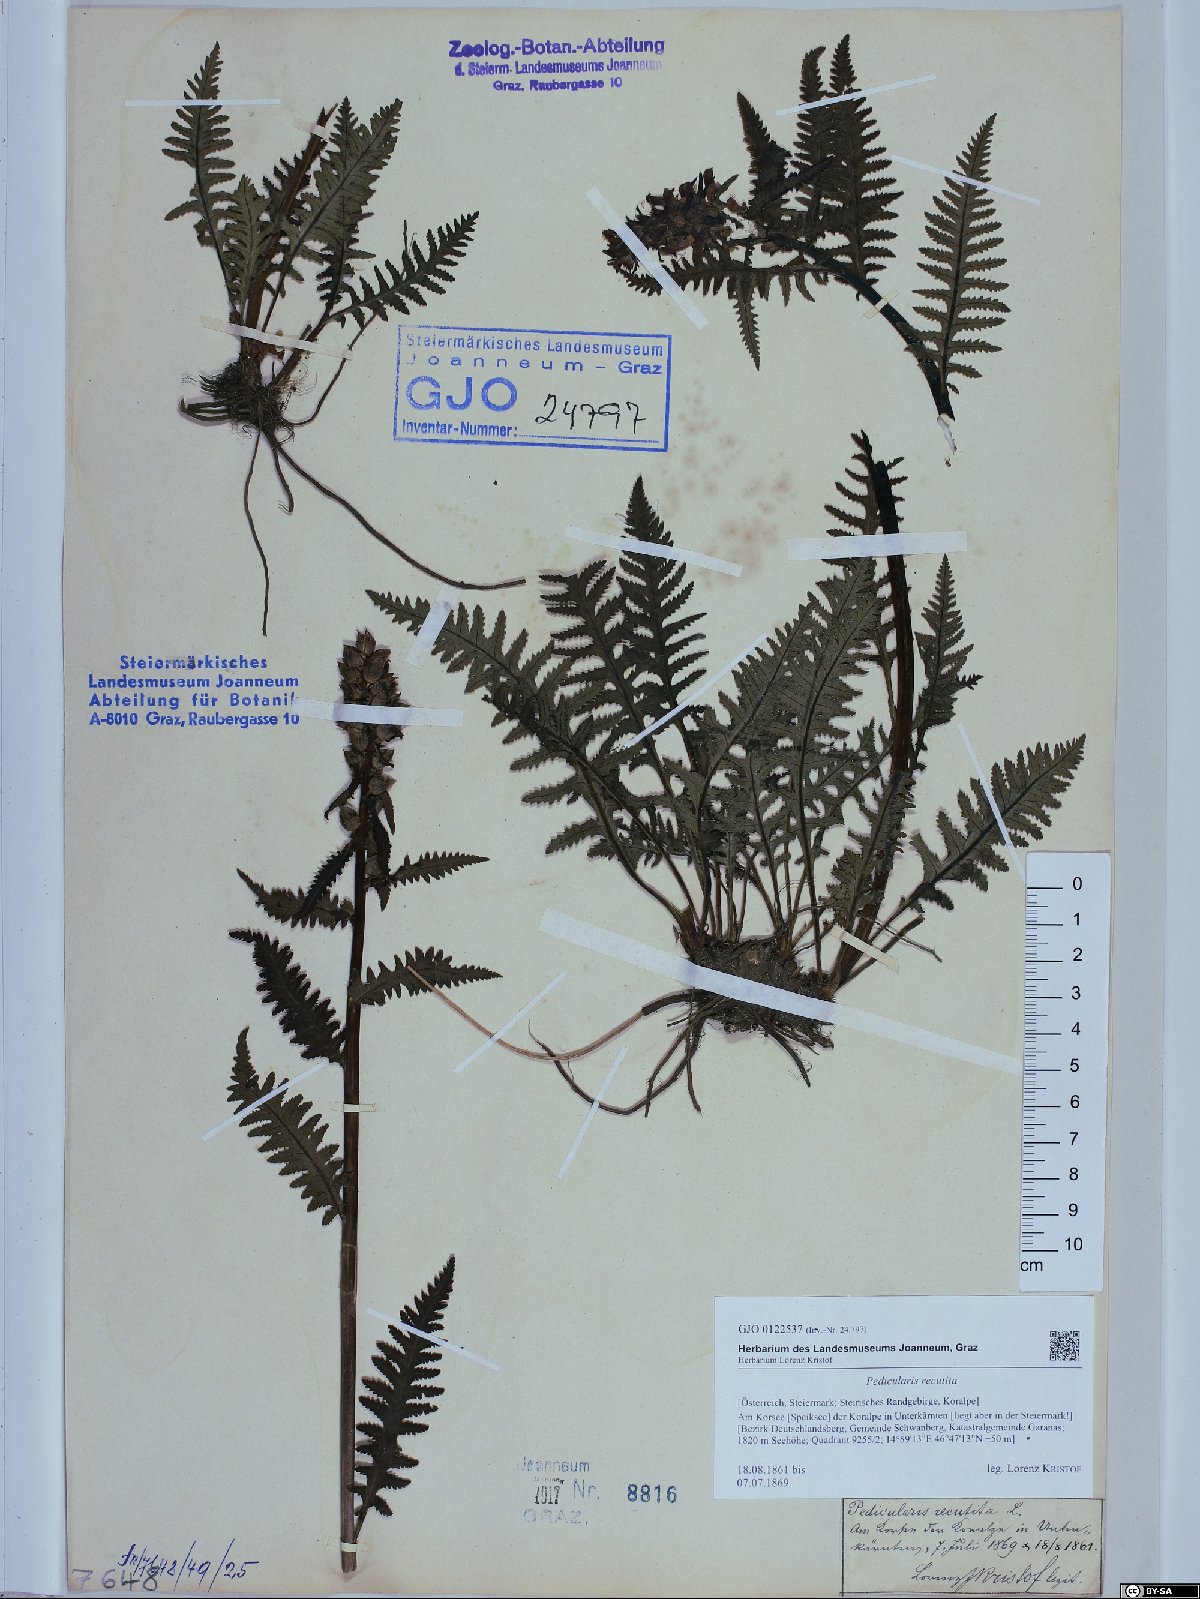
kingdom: Plantae
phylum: Tracheophyta
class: Magnoliopsida
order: Lamiales
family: Orobanchaceae
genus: Pedicularis
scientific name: Pedicularis recutita
